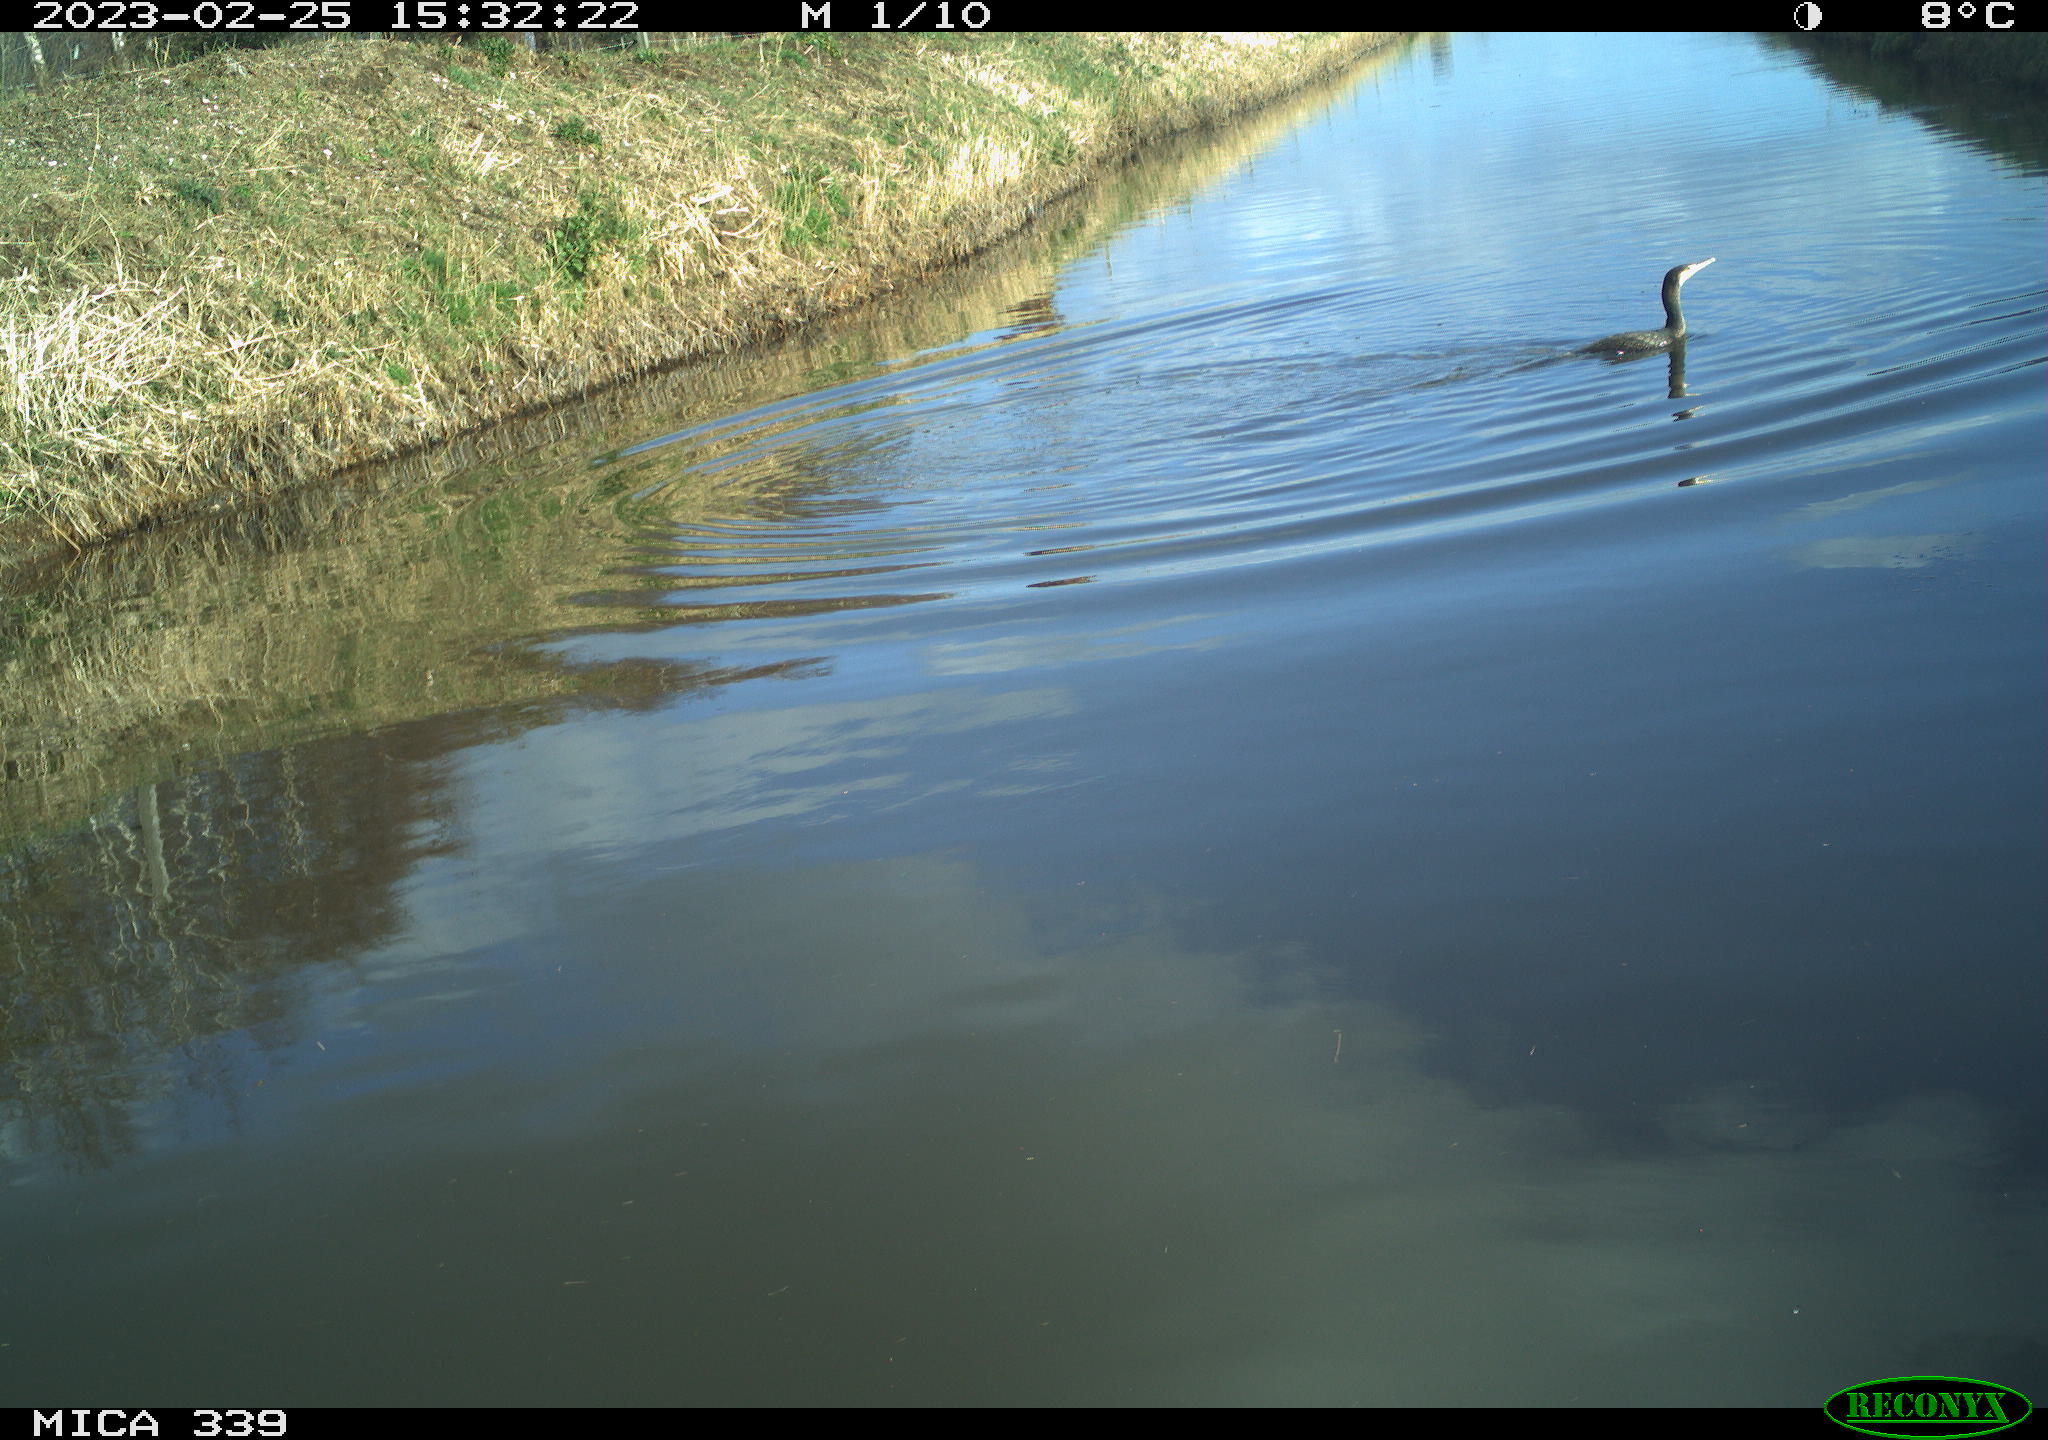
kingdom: Animalia
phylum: Chordata
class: Aves
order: Suliformes
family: Phalacrocoracidae
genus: Phalacrocorax
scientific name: Phalacrocorax carbo
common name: Great cormorant
